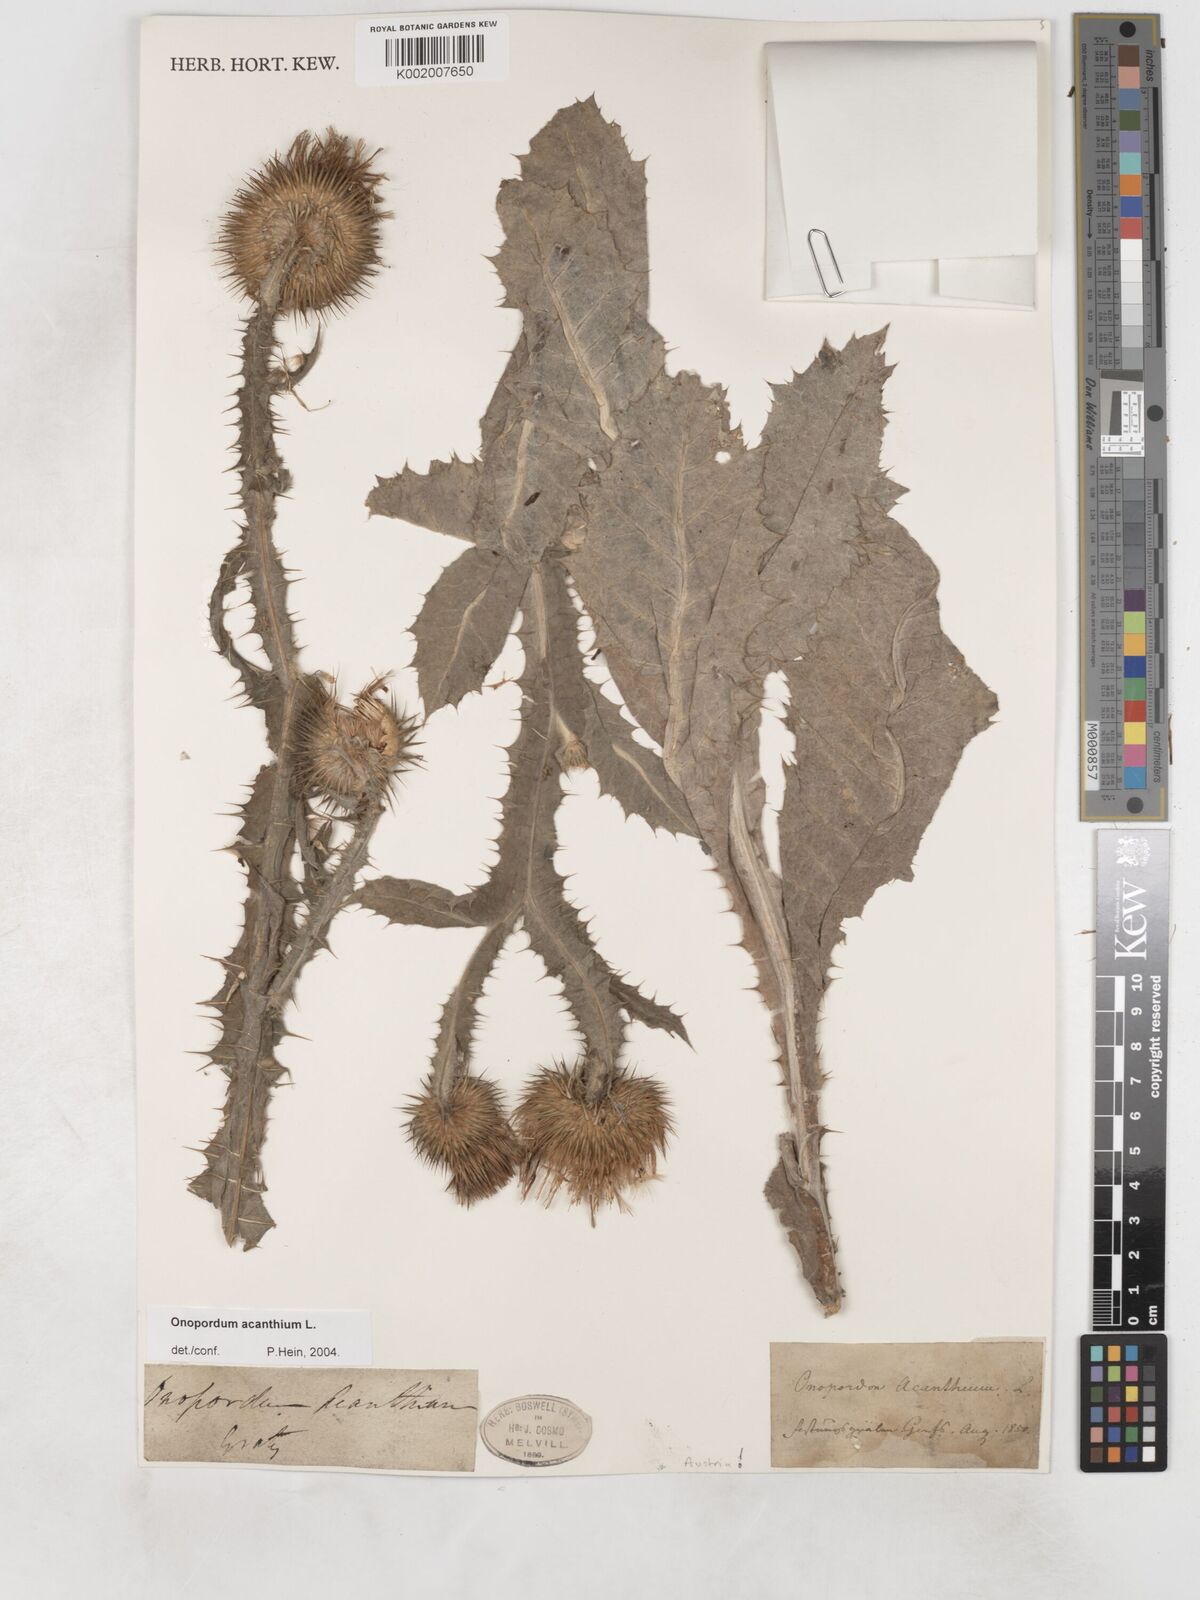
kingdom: Plantae
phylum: Tracheophyta
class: Magnoliopsida
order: Asterales
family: Asteraceae
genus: Onopordum
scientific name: Onopordum acanthium
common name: Scotch thistle
